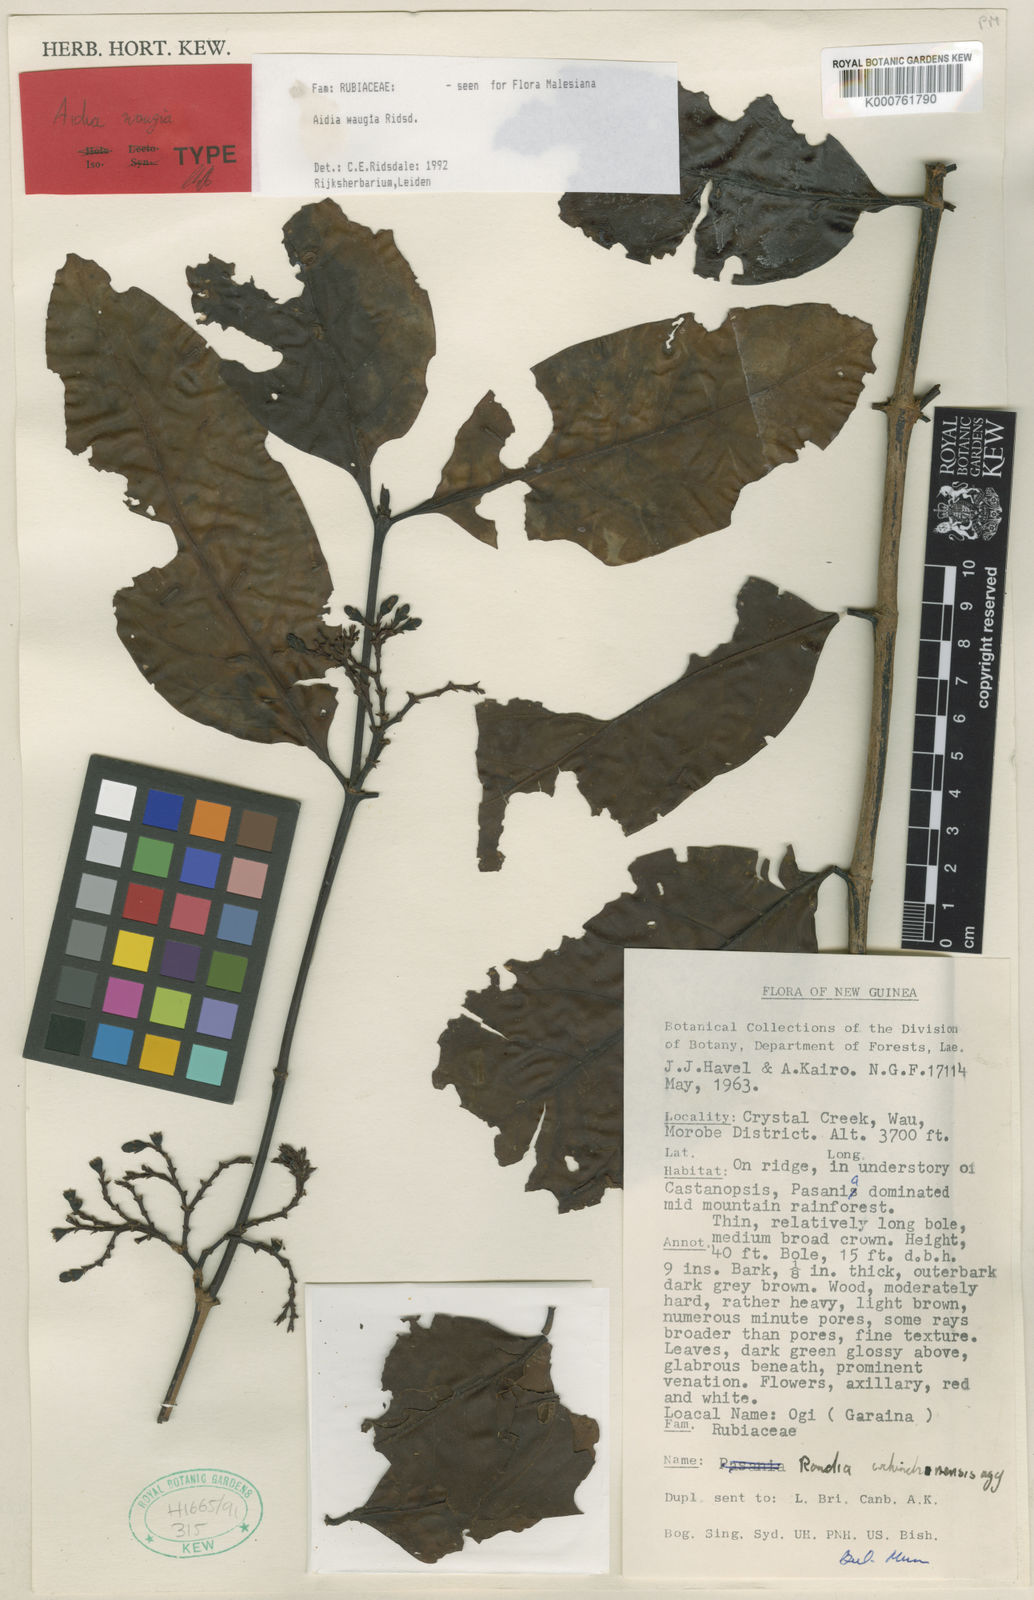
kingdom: Plantae
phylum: Tracheophyta
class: Magnoliopsida
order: Gentianales
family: Rubiaceae
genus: Aidia
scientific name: Aidia waugia
